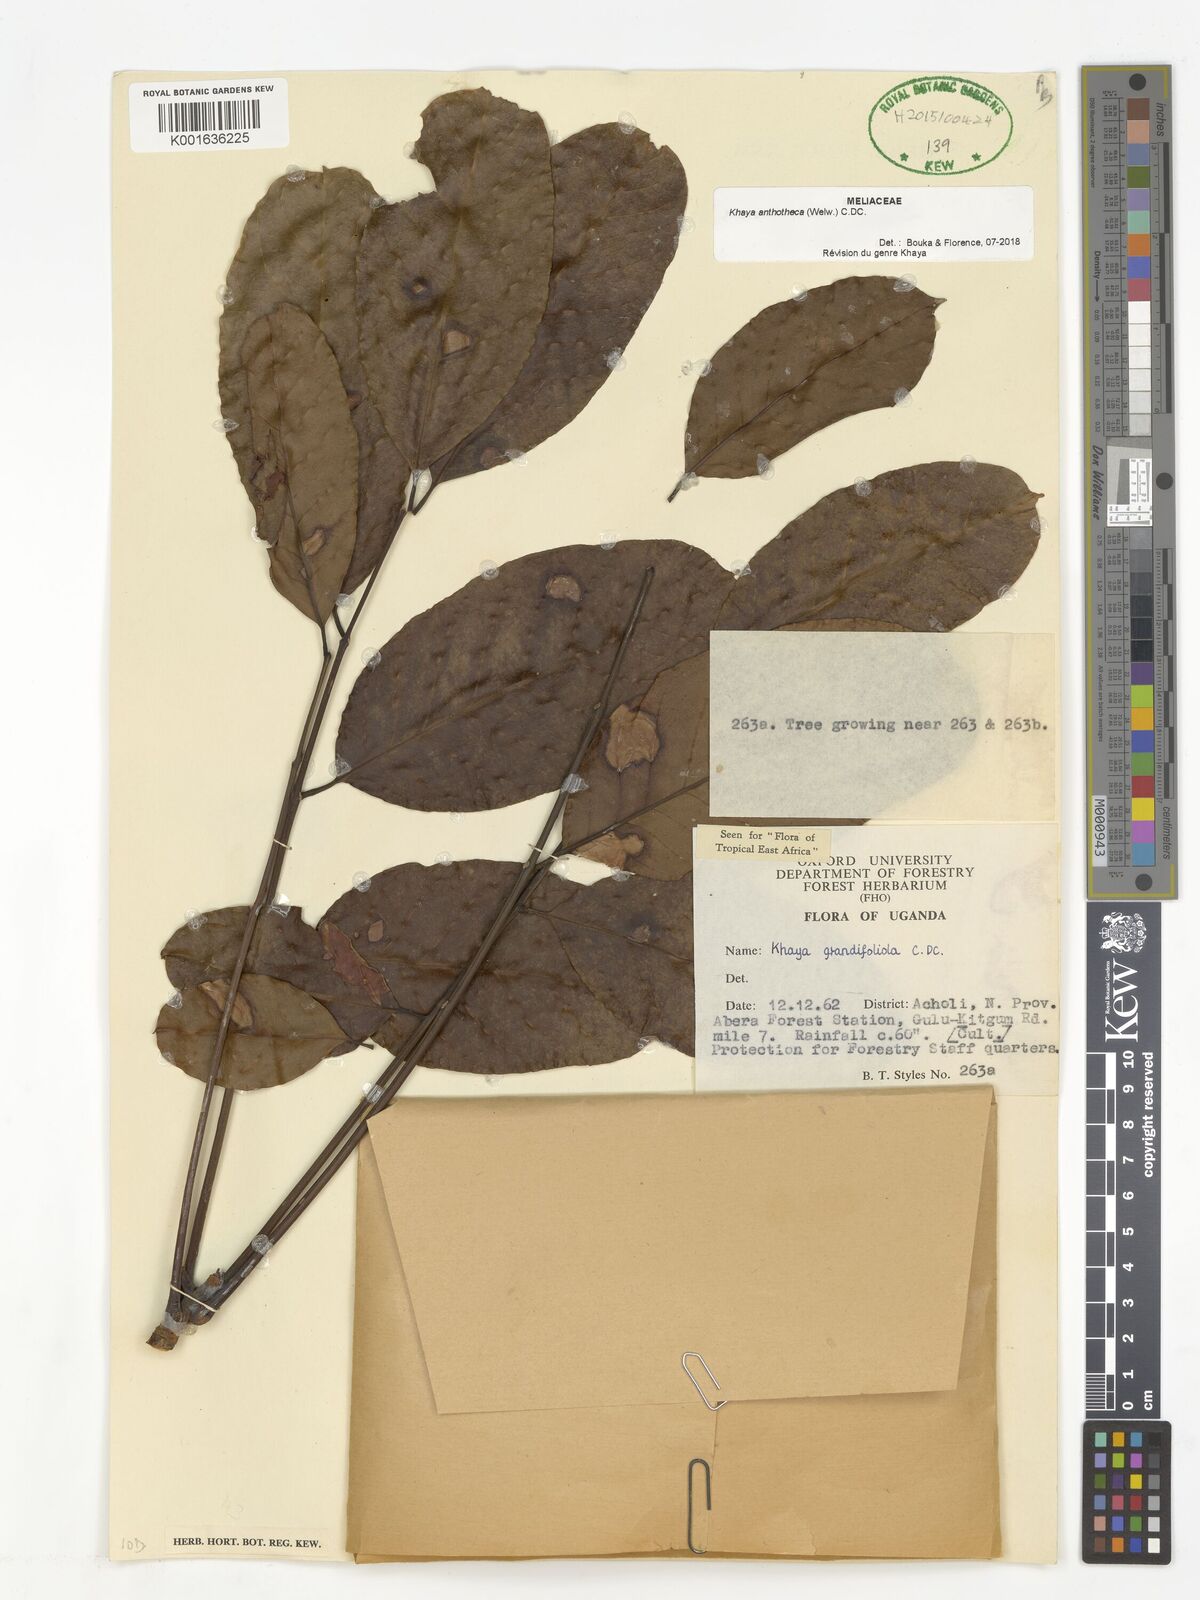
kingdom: Plantae
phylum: Tracheophyta
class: Magnoliopsida
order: Sapindales
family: Meliaceae
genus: Khaya
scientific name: Khaya anthotheca
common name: Nyasaland mahogany
